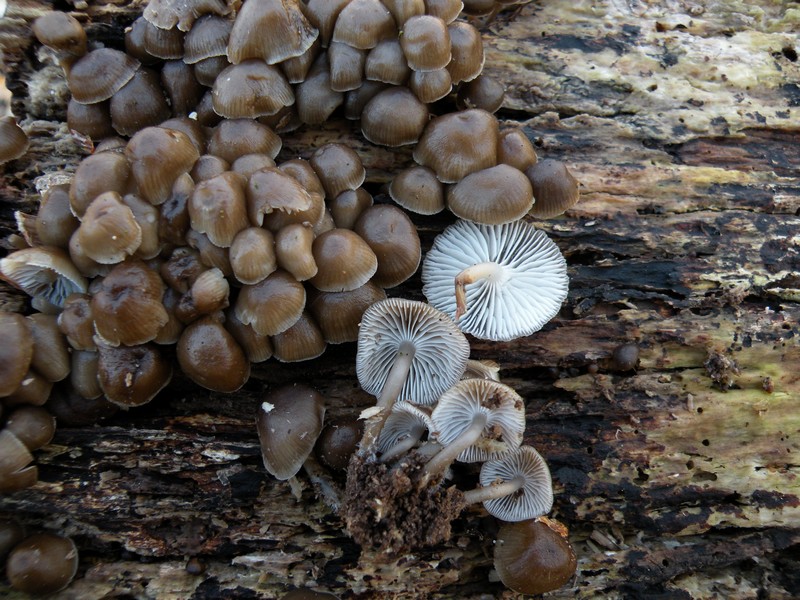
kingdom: Fungi
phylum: Basidiomycota
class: Agaricomycetes
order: Agaricales
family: Mycenaceae
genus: Mycena
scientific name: Mycena tintinnabulum
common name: vinter-huesvamp
